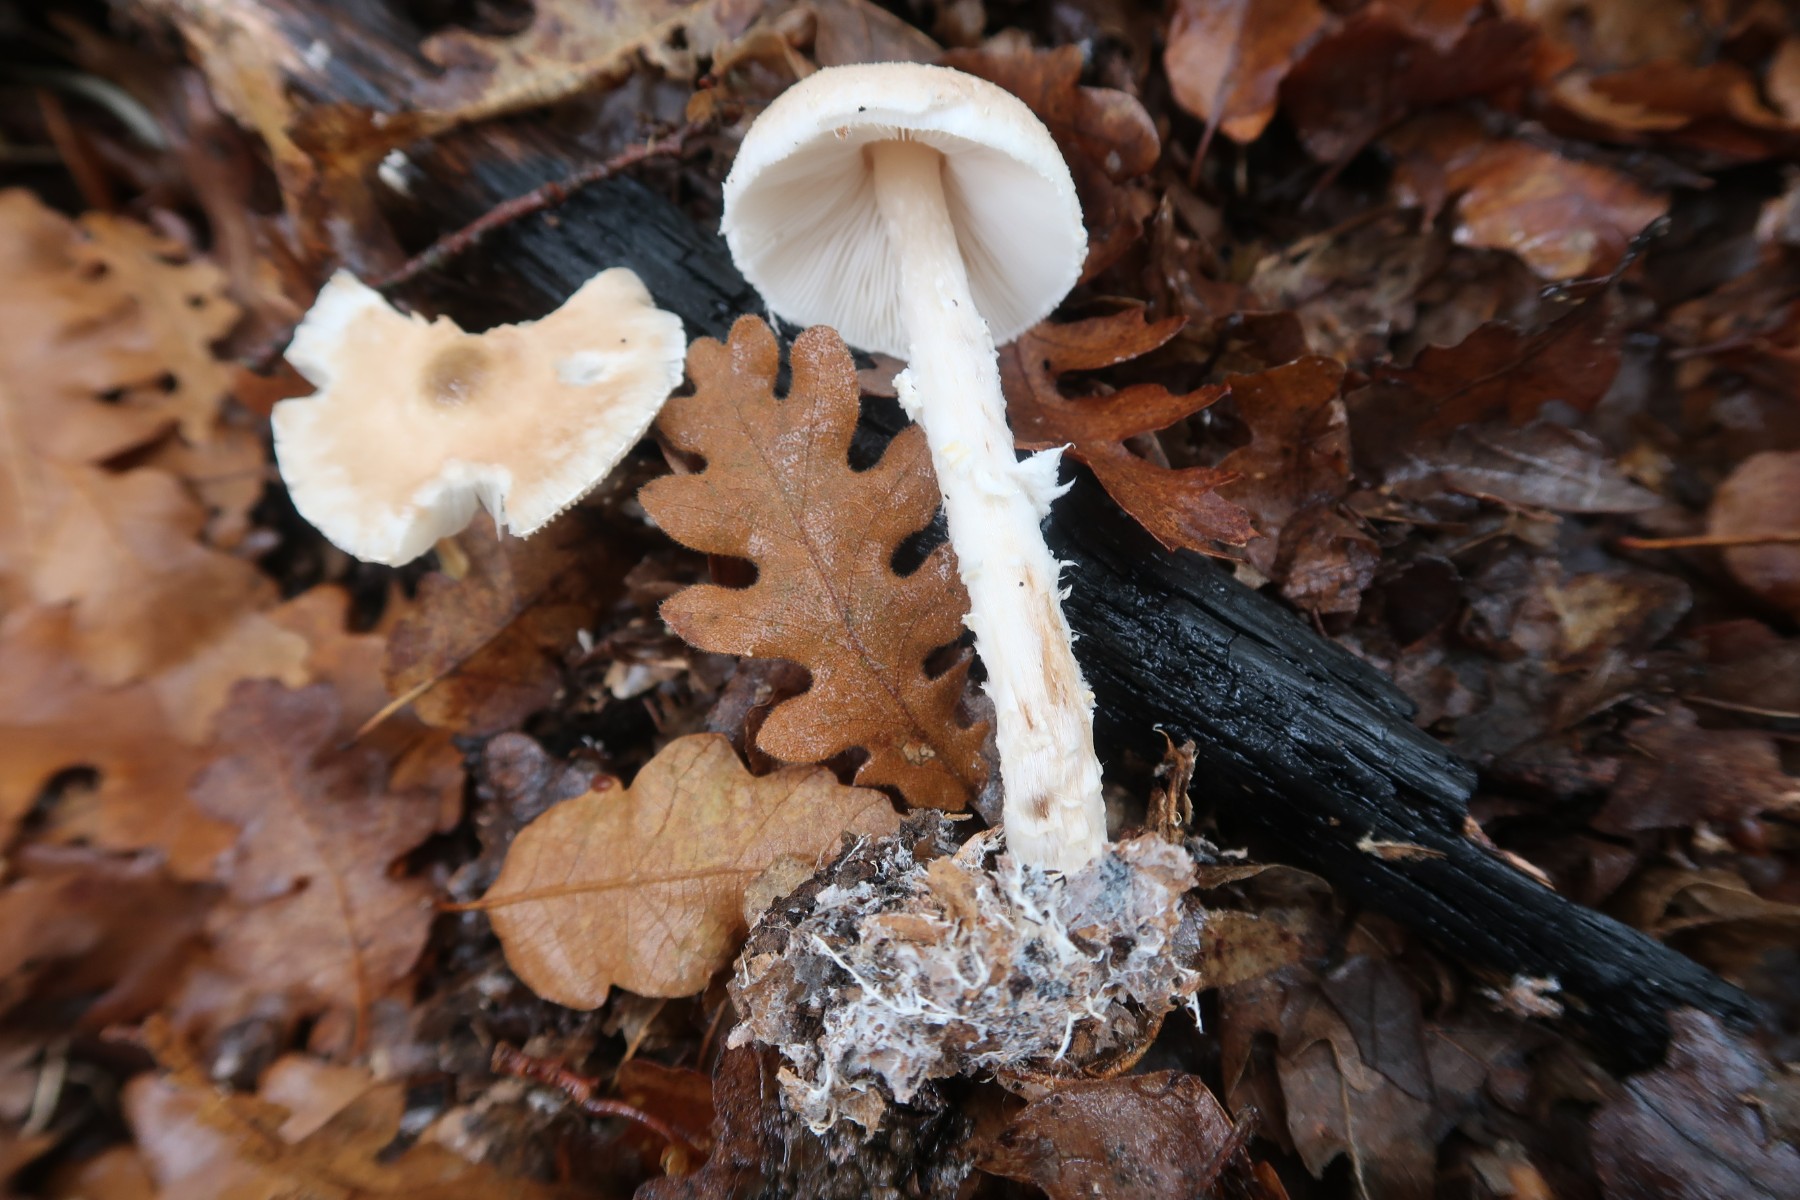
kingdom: Fungi
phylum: Basidiomycota
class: Agaricomycetes
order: Agaricales
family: Agaricaceae
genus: Lepiota
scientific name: Lepiota clypeolaria
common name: flosset parasolhat
